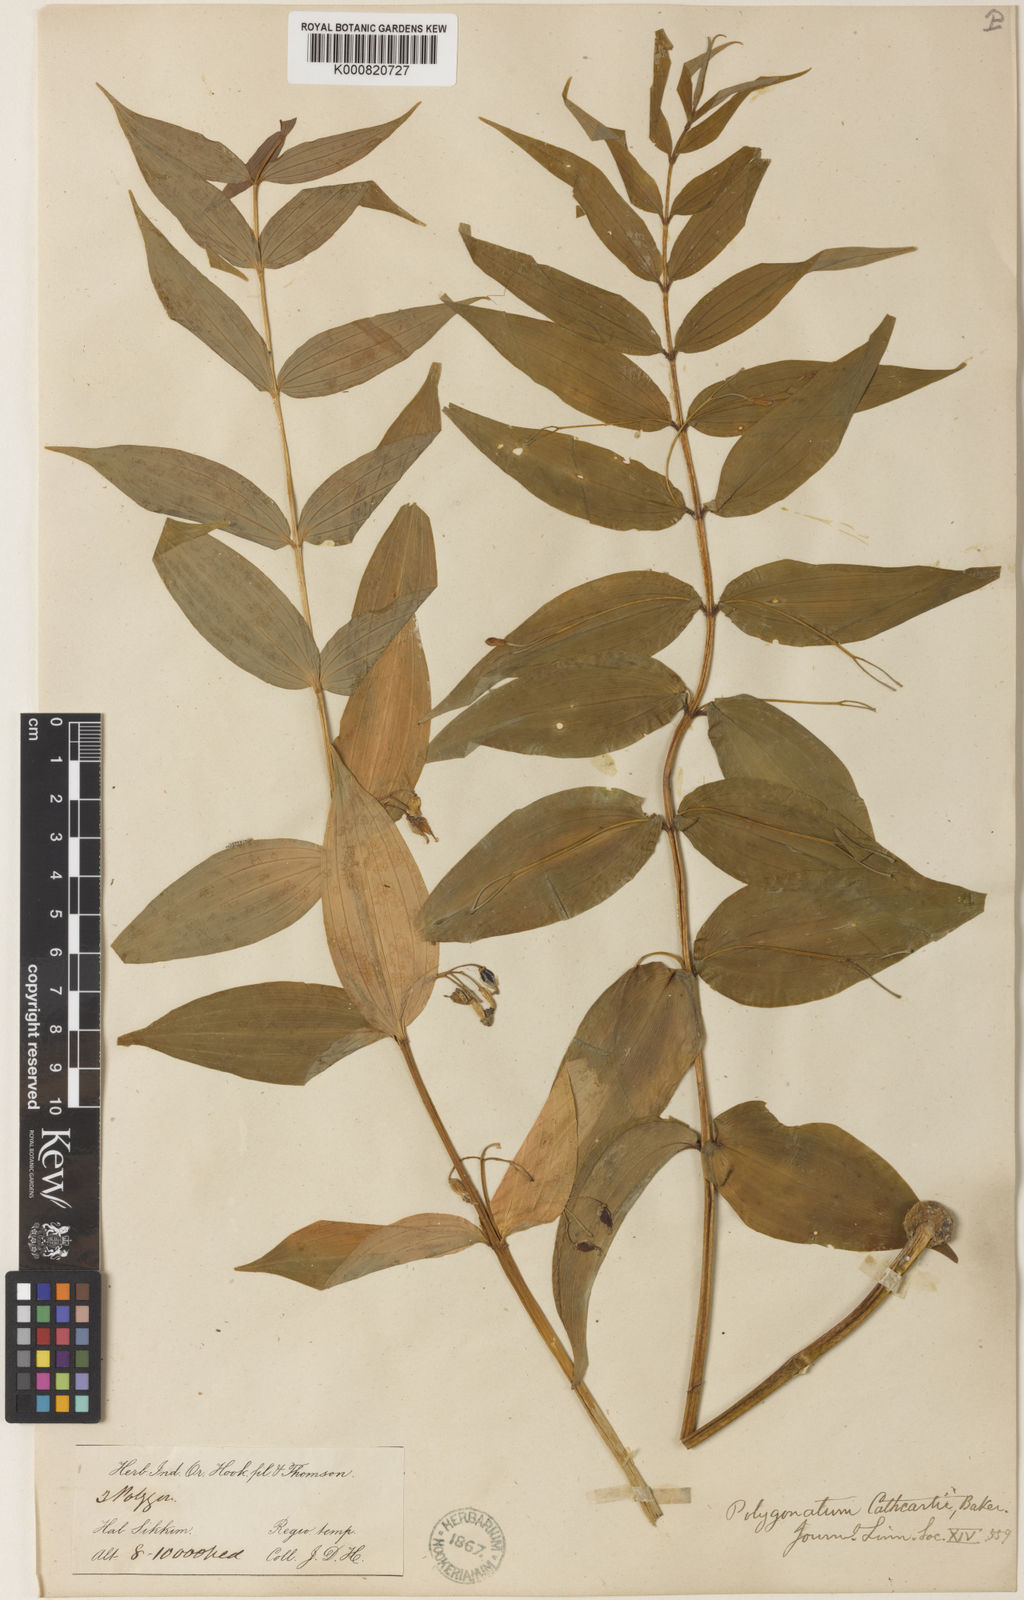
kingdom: Plantae
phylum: Tracheophyta
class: Liliopsida
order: Asparagales
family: Asparagaceae
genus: Polygonatum
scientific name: Polygonatum cathcartii
